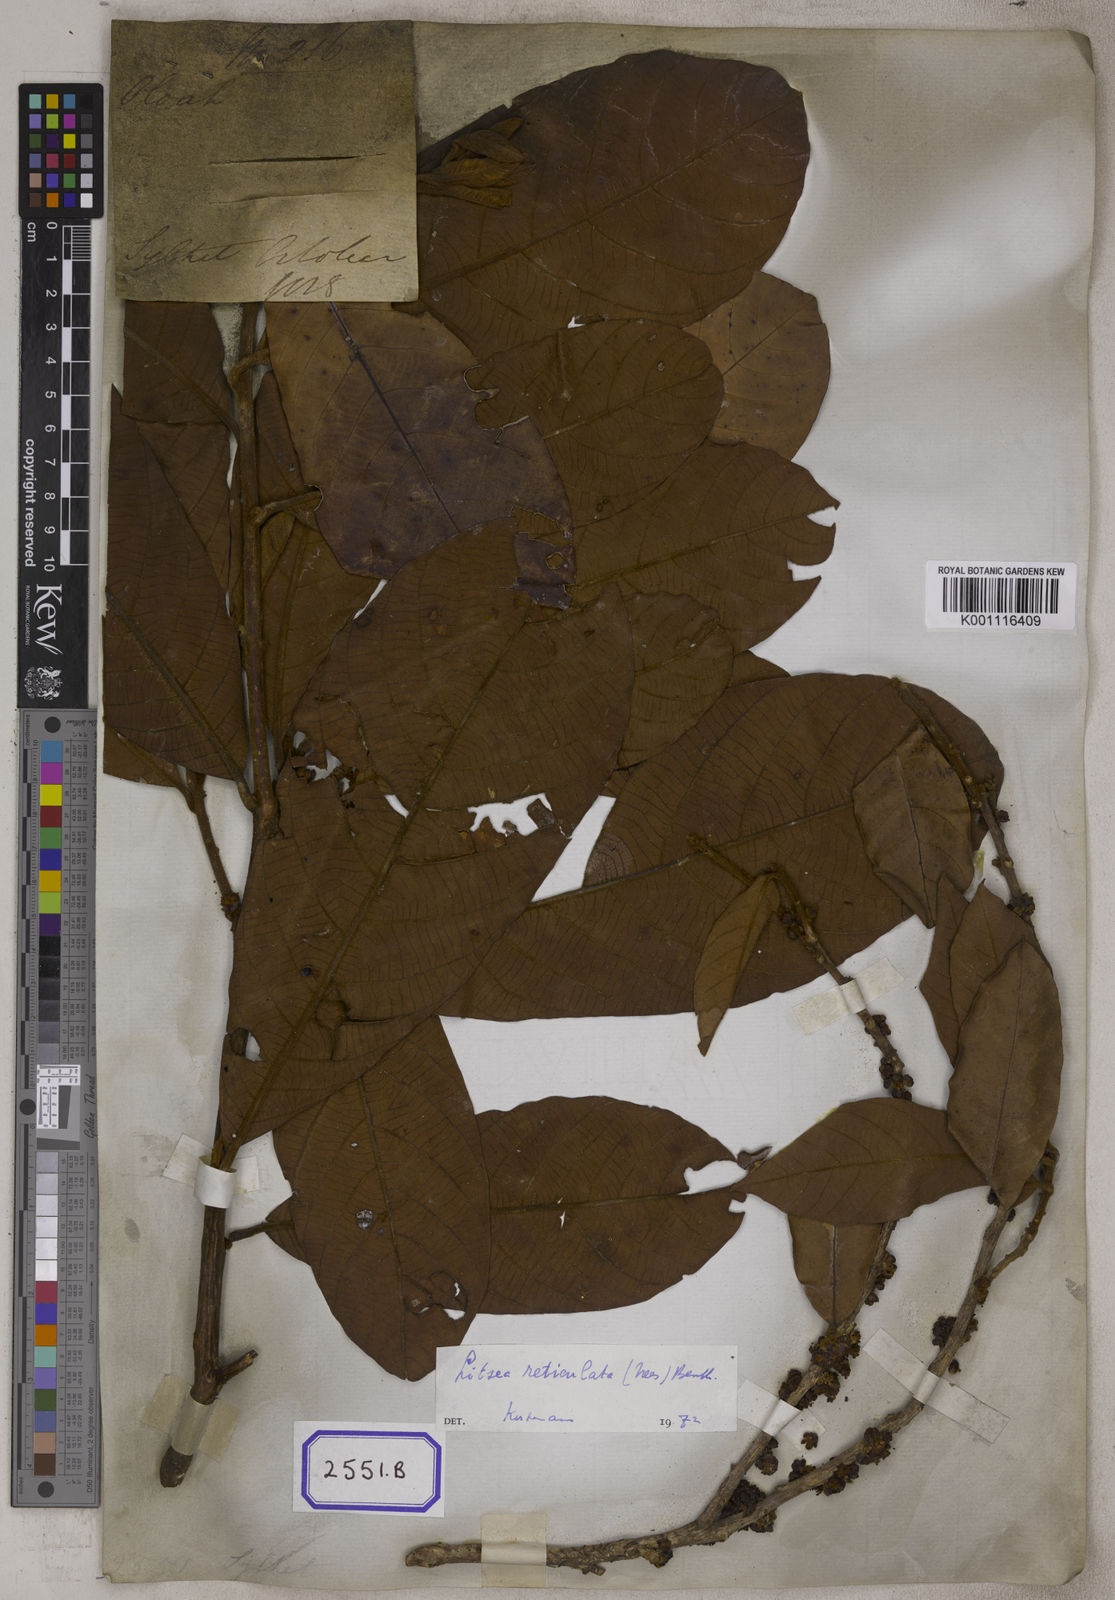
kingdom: Plantae
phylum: Tracheophyta
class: Magnoliopsida
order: Laurales
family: Lauraceae
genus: Lindera
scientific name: Lindera reticulata
